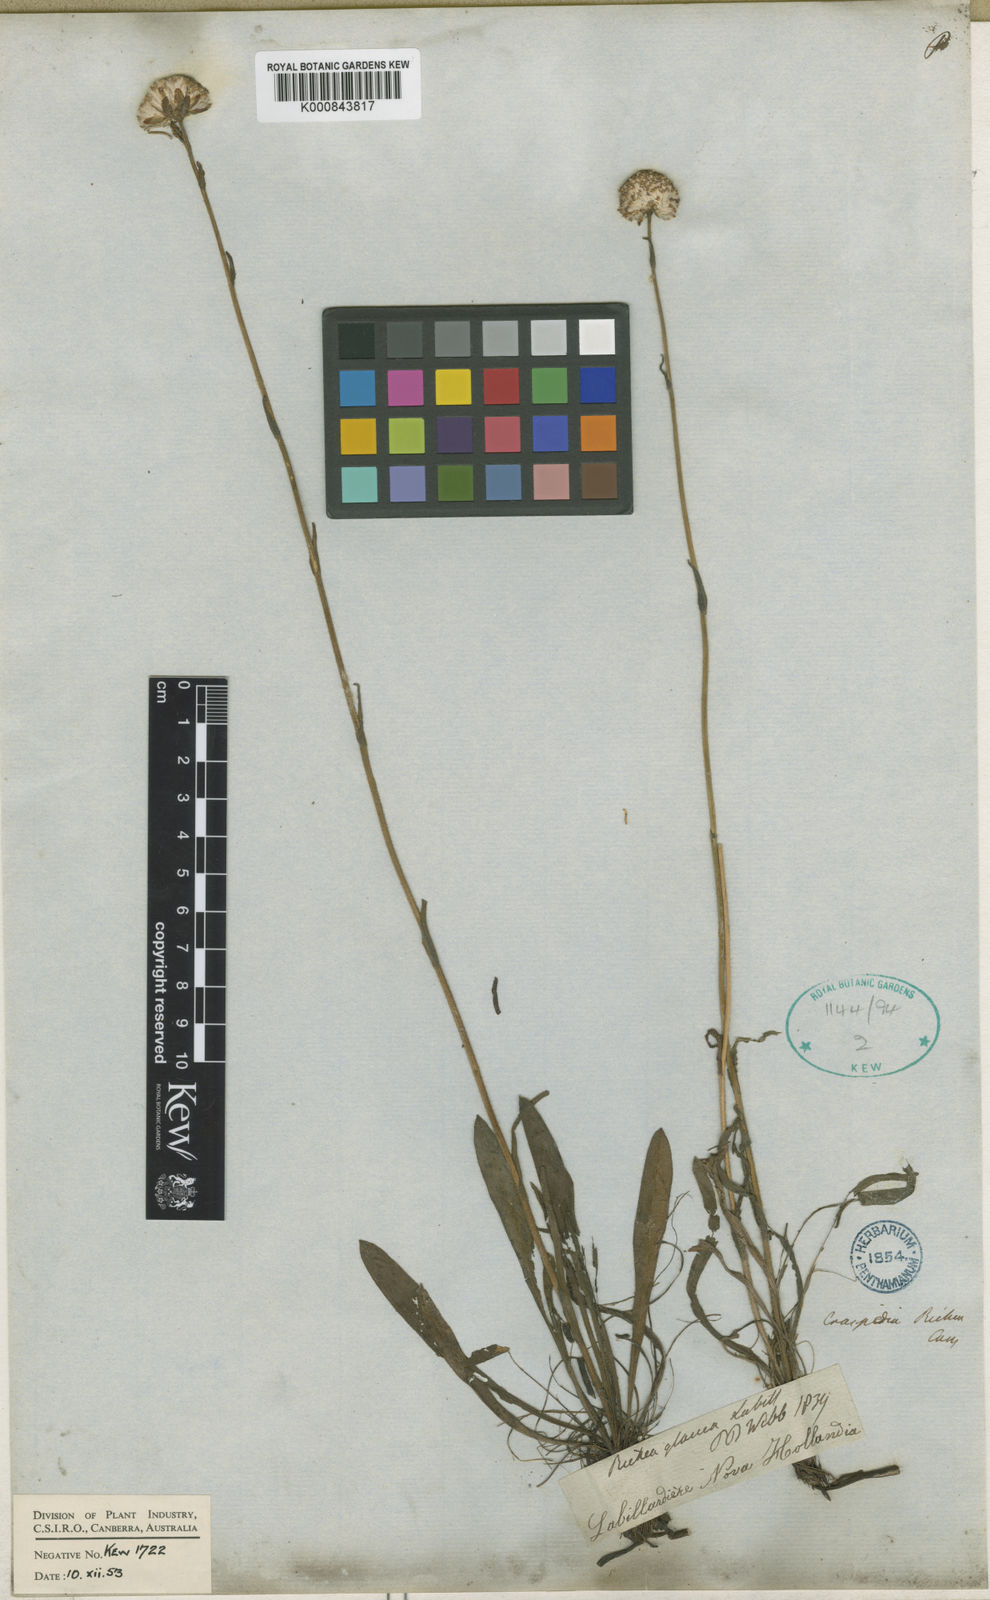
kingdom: Plantae
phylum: Tracheophyta
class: Magnoliopsida
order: Asterales
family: Asteraceae
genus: Pycnosorus
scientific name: Pycnosorus
